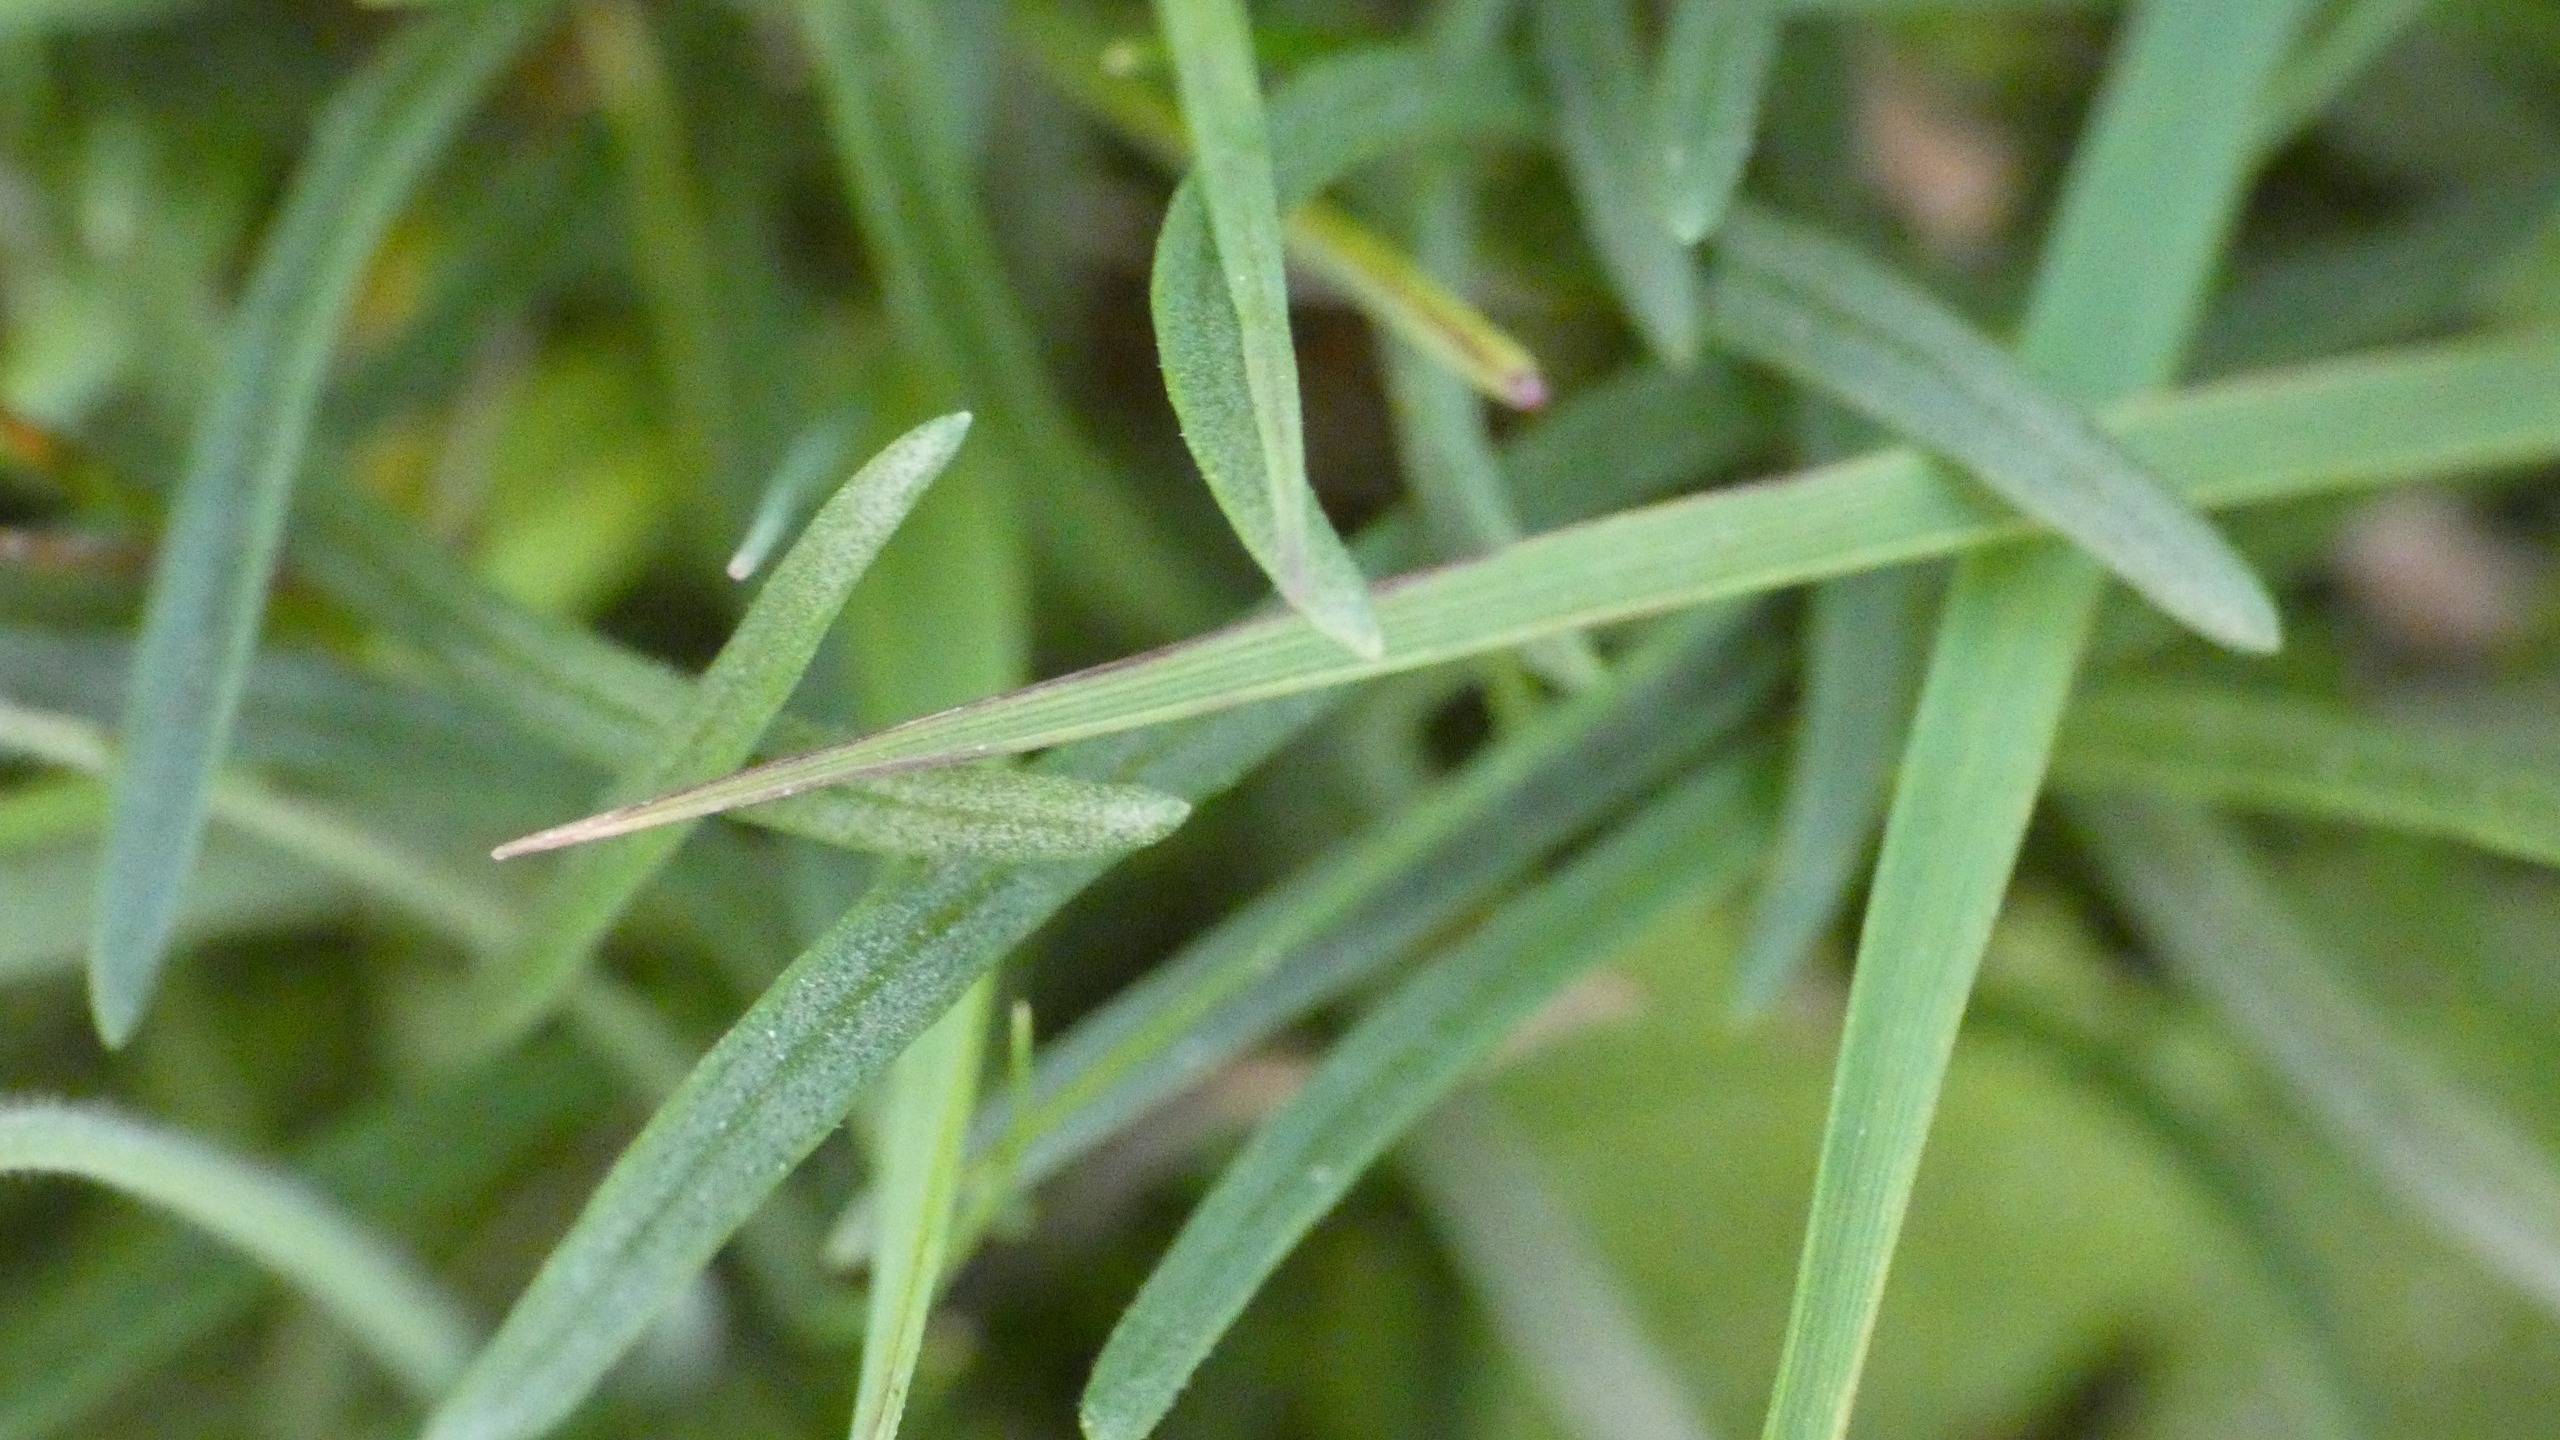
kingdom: Plantae
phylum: Tracheophyta
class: Magnoliopsida
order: Caryophyllales
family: Plumbaginaceae
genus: Armeria
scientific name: Armeria maritima
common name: Engelskgræs
